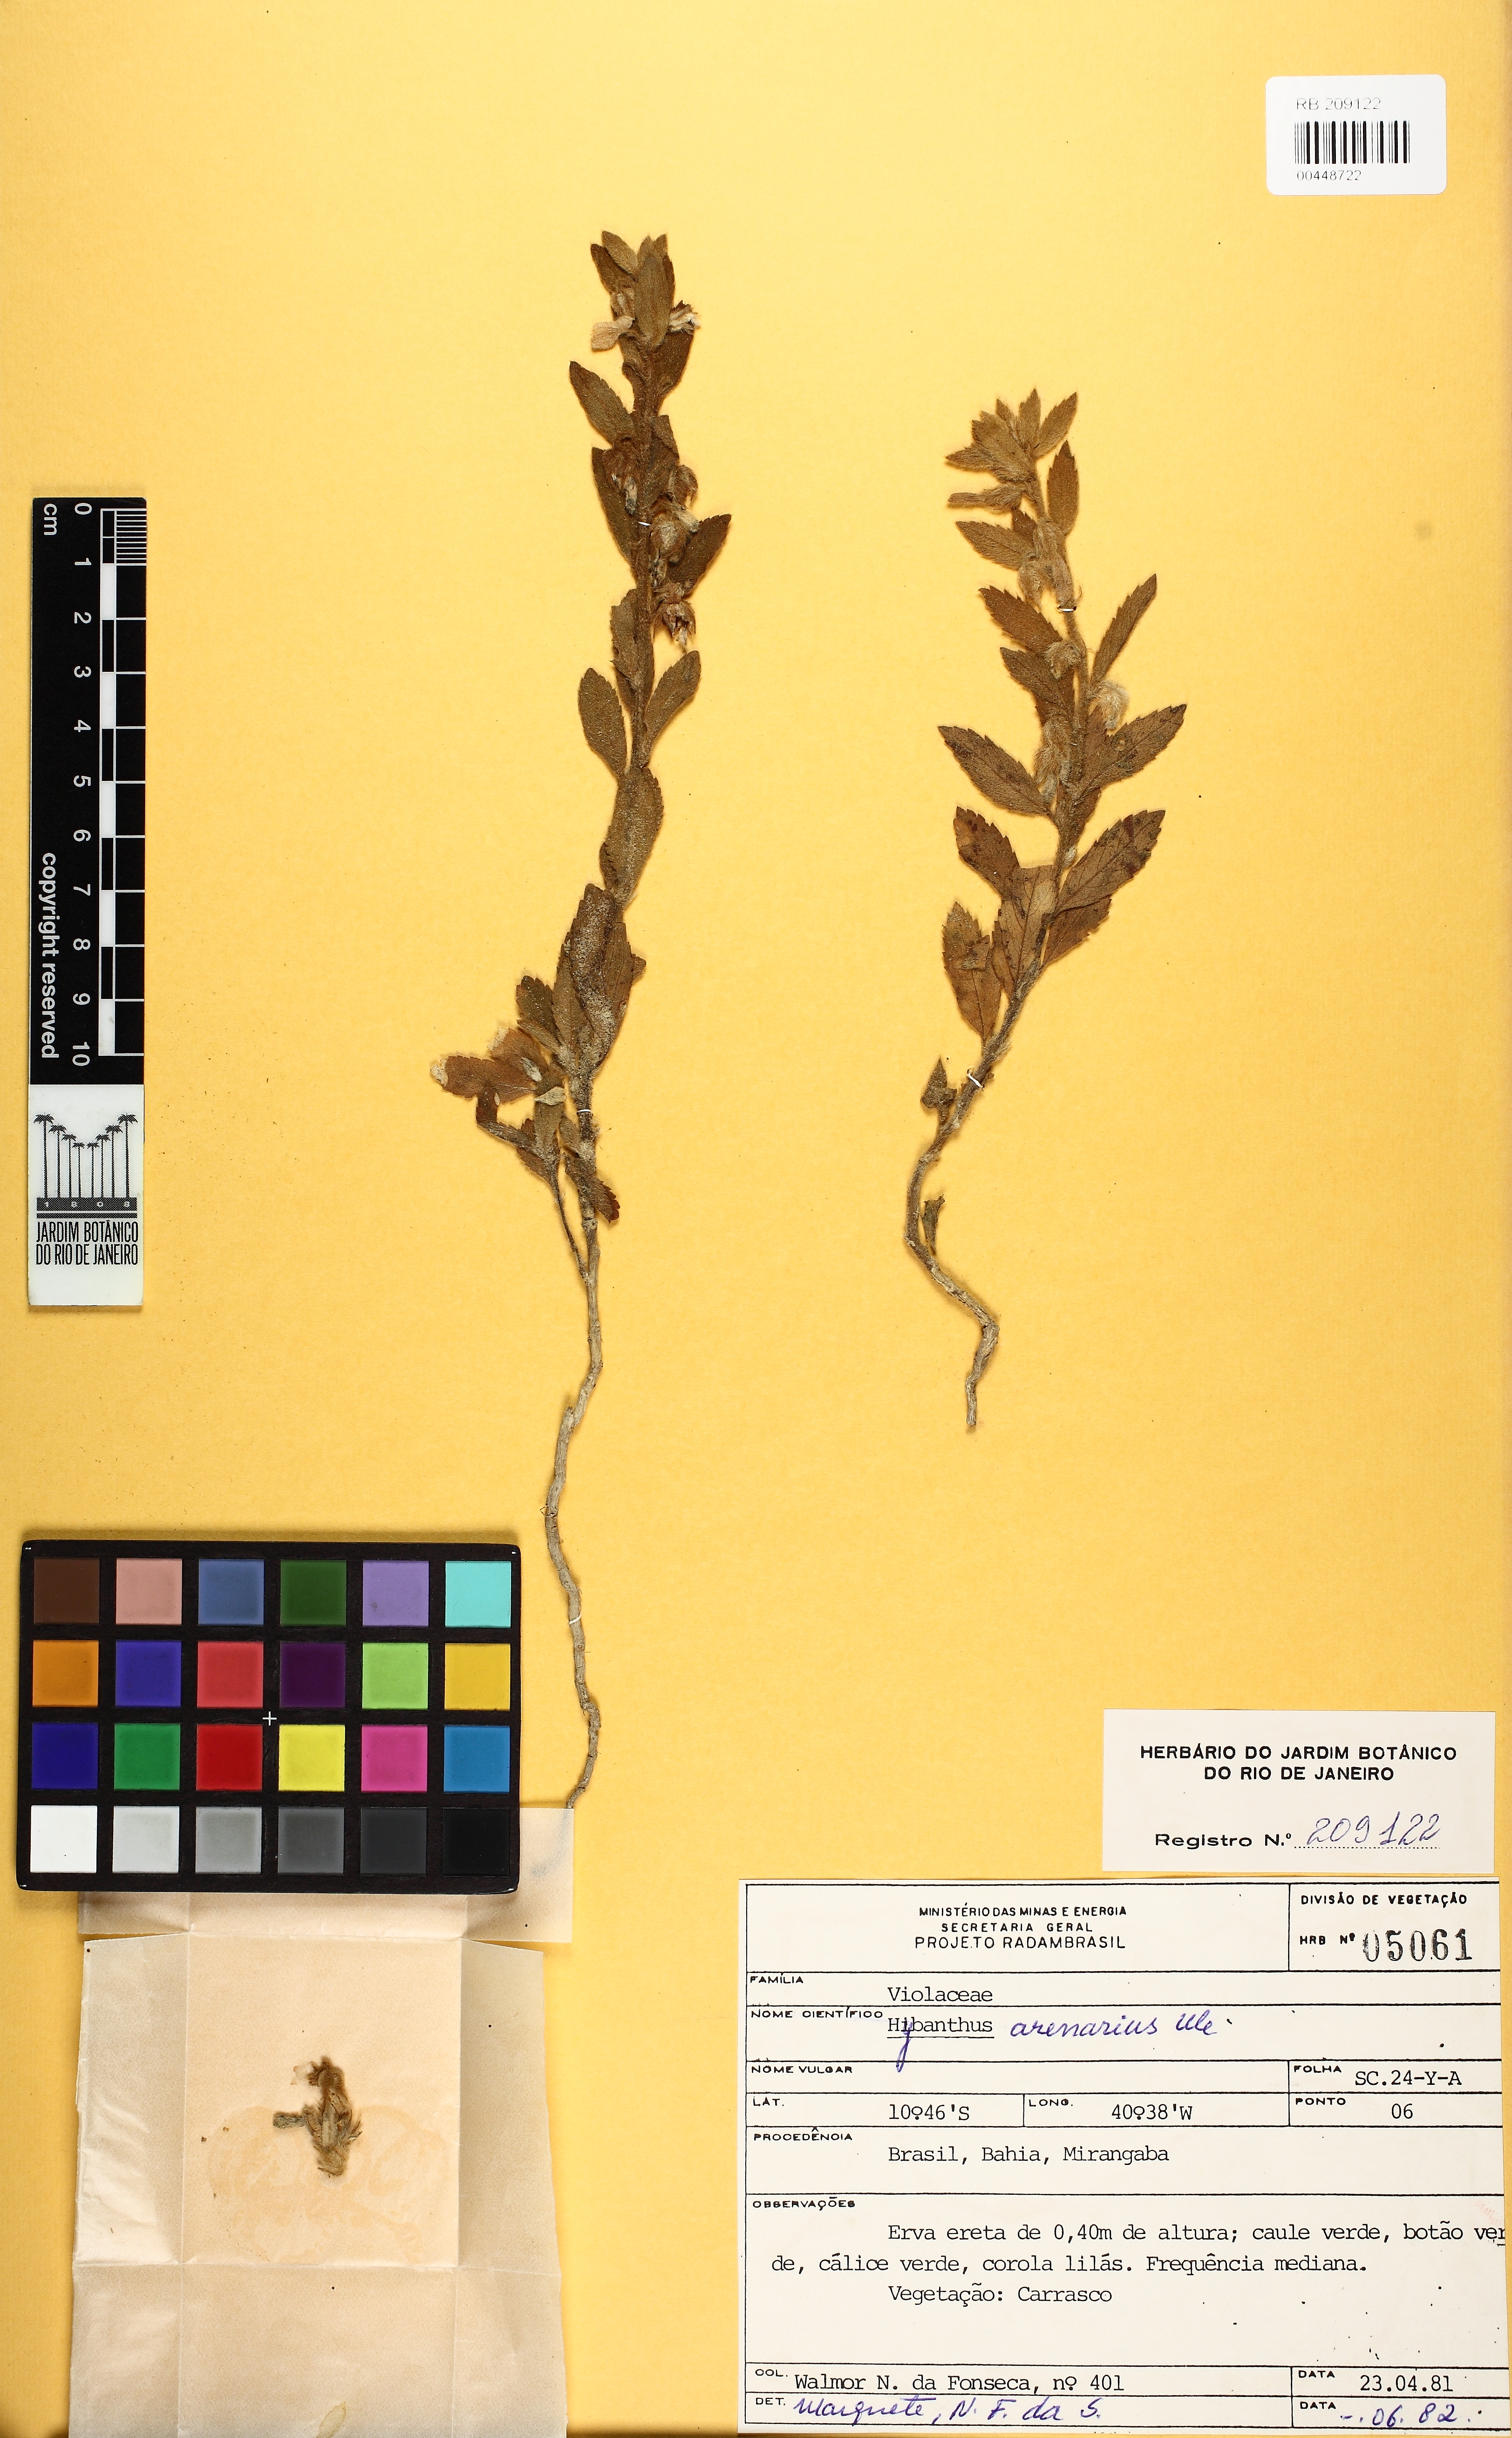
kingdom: Plantae
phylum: Tracheophyta
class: Magnoliopsida
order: Malpighiales
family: Violaceae
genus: Pombalia
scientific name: Pombalia arenaria
